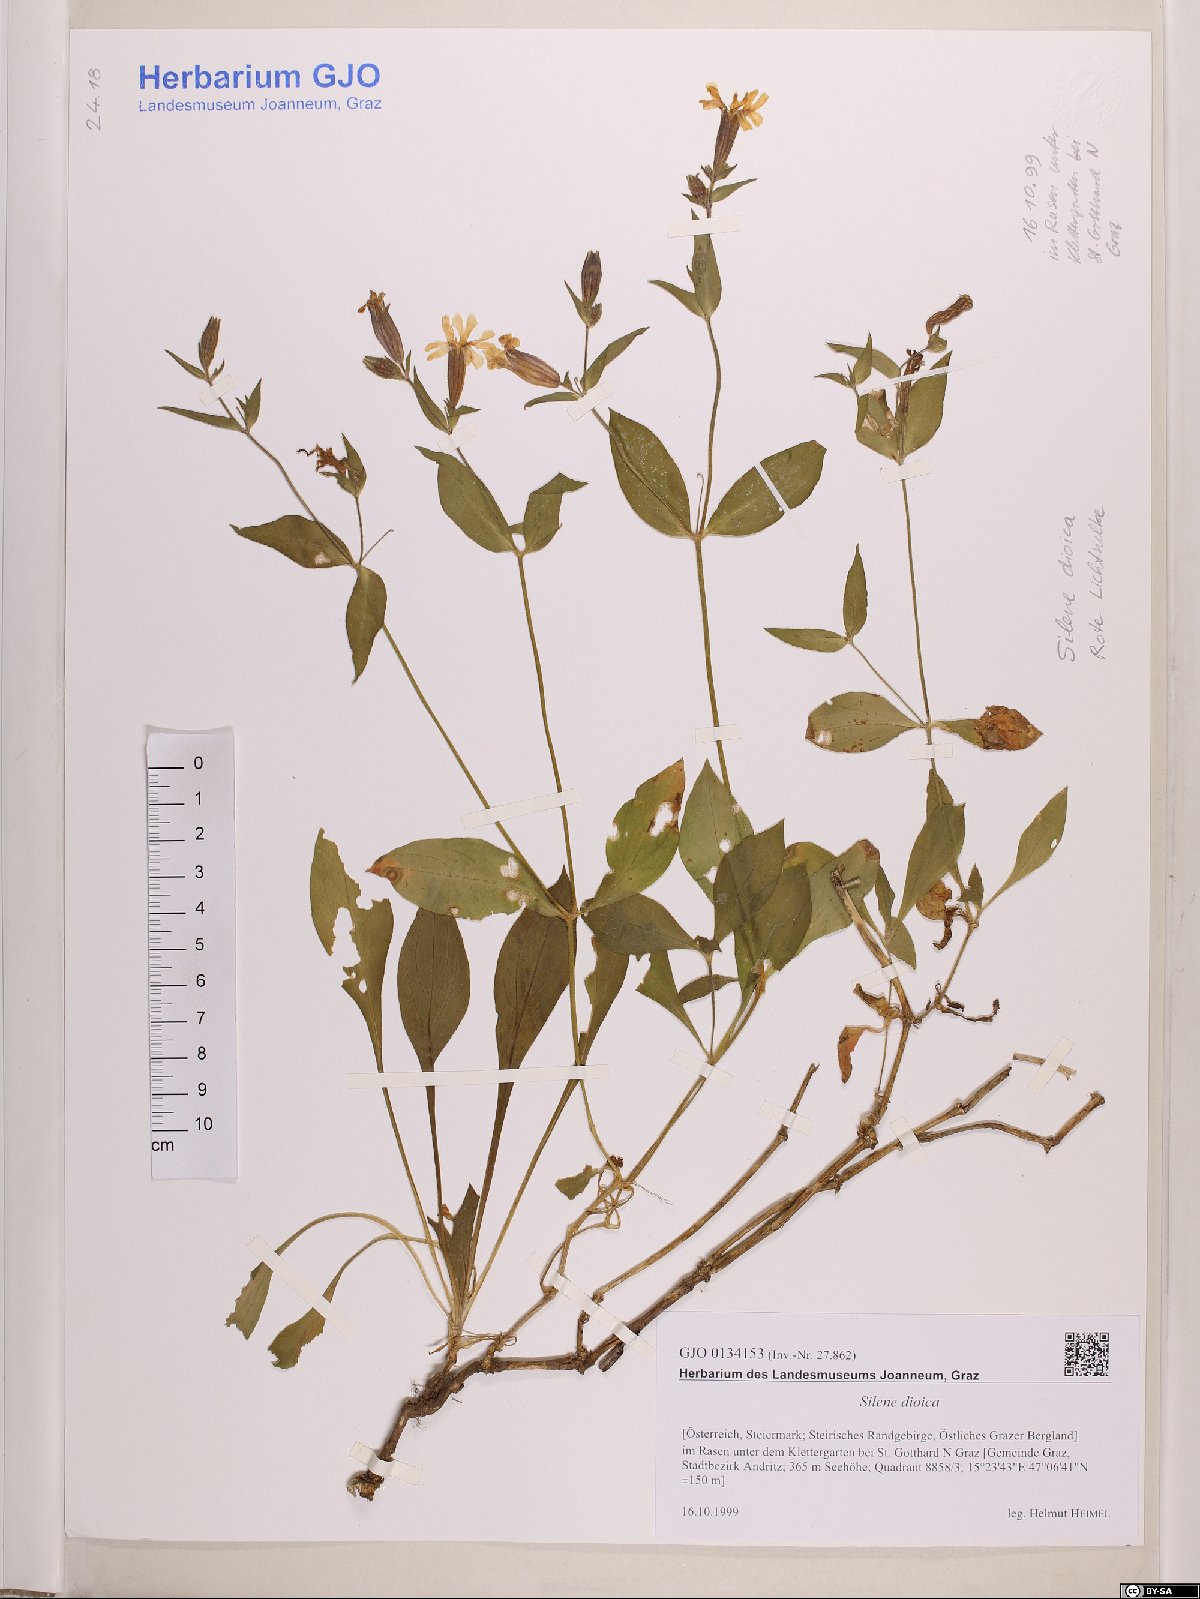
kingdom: Plantae
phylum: Tracheophyta
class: Magnoliopsida
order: Caryophyllales
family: Caryophyllaceae
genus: Silene
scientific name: Silene dioica
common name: Red campion
